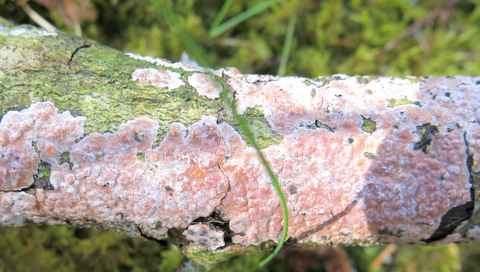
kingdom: Fungi
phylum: Basidiomycota
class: Agaricomycetes
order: Russulales
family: Peniophoraceae
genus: Peniophora
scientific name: Peniophora polygonia
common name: polygon-voksskind
